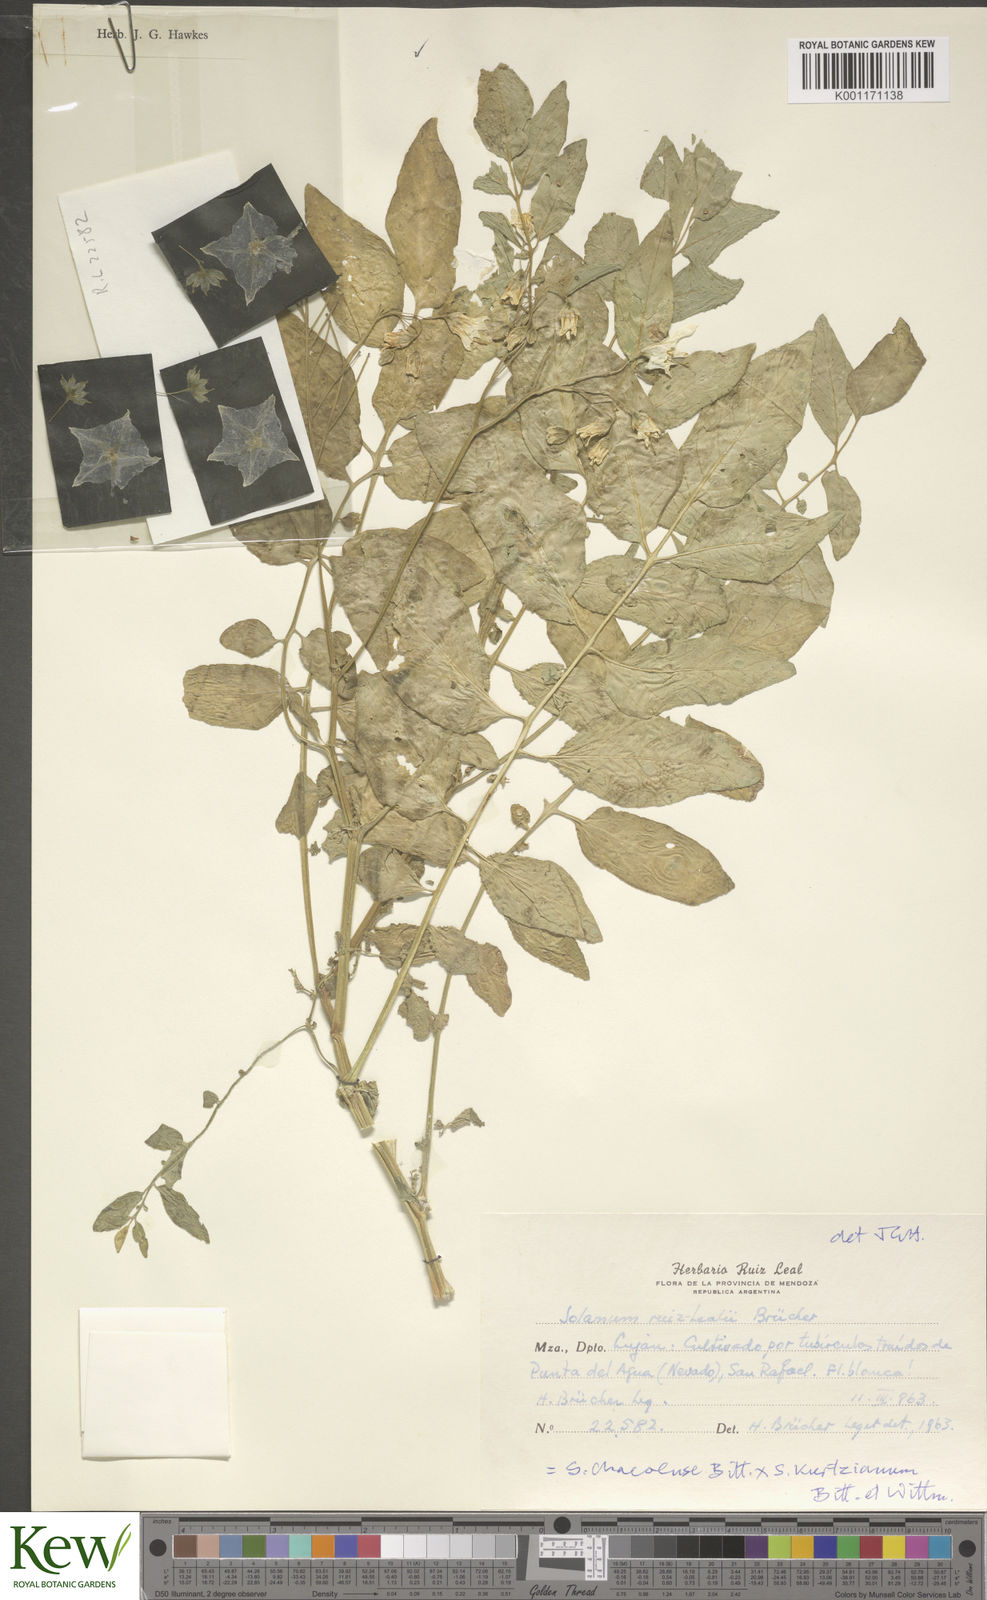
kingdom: Plantae
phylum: Tracheophyta
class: Magnoliopsida
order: Solanales
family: Solanaceae
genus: Solanum
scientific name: Solanum chacoense
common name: Chaco potato
